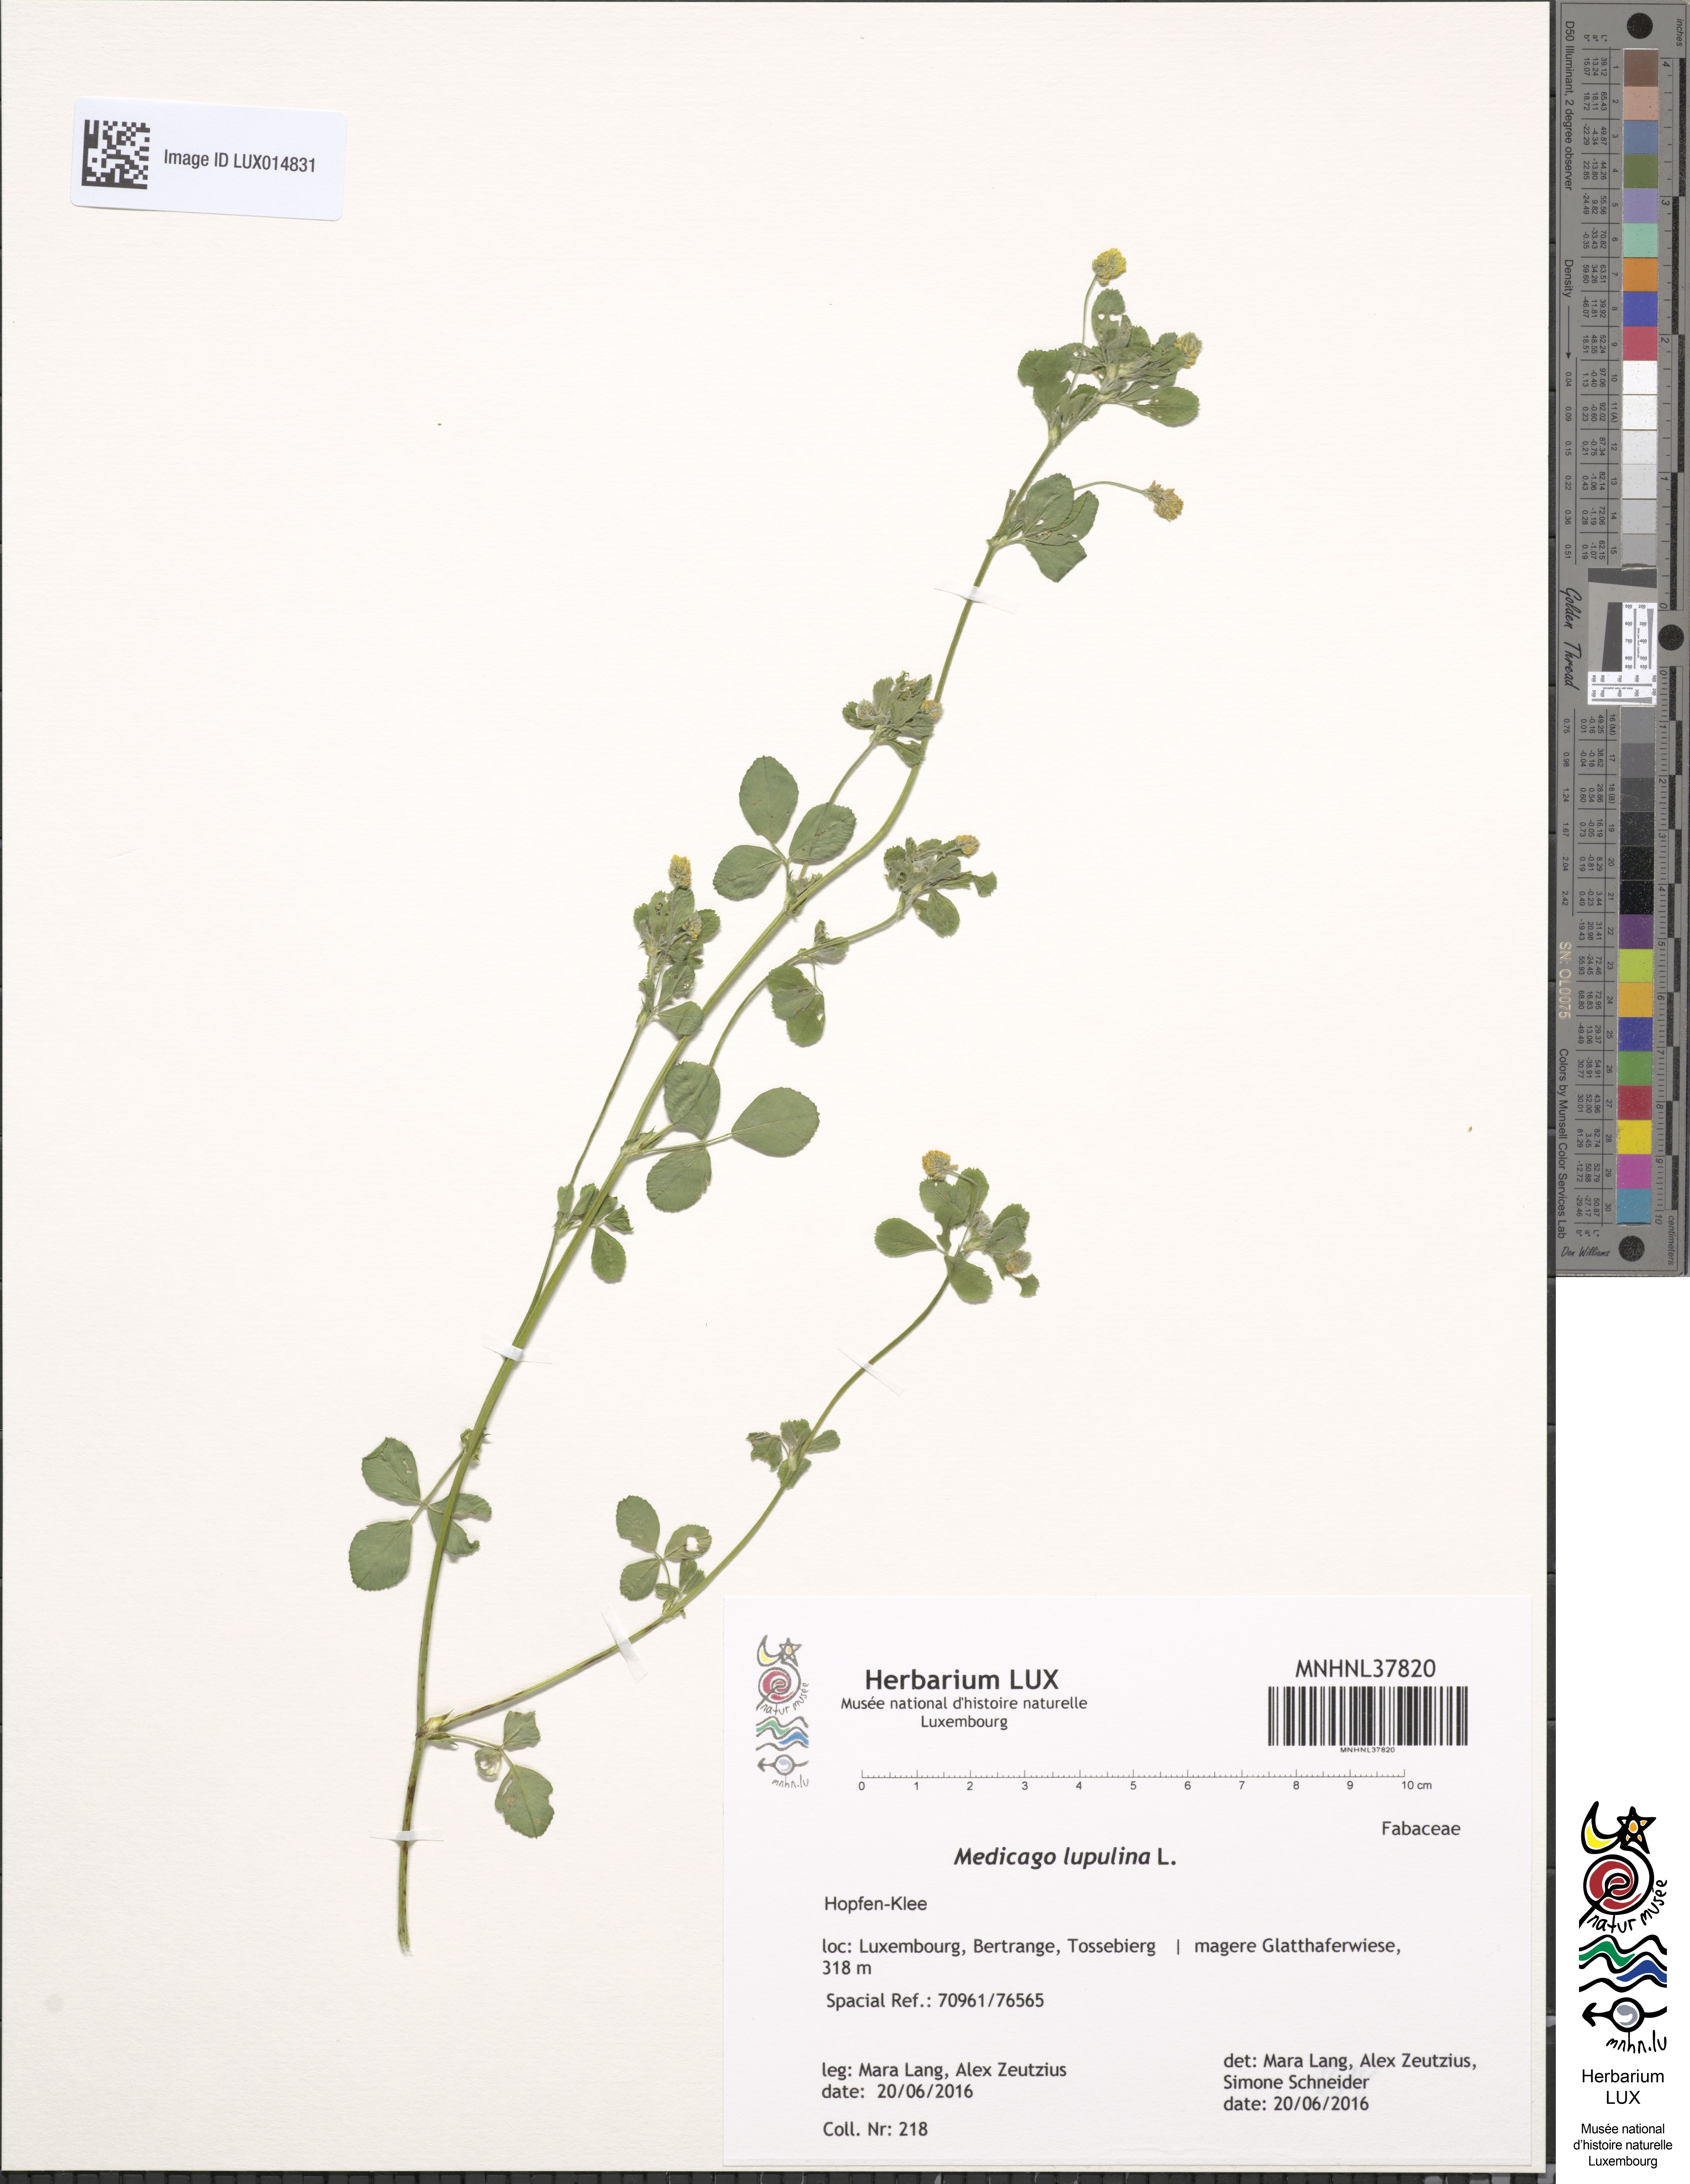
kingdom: Plantae
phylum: Tracheophyta
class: Magnoliopsida
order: Fabales
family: Fabaceae
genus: Medicago
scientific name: Medicago lupulina
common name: Black medick
